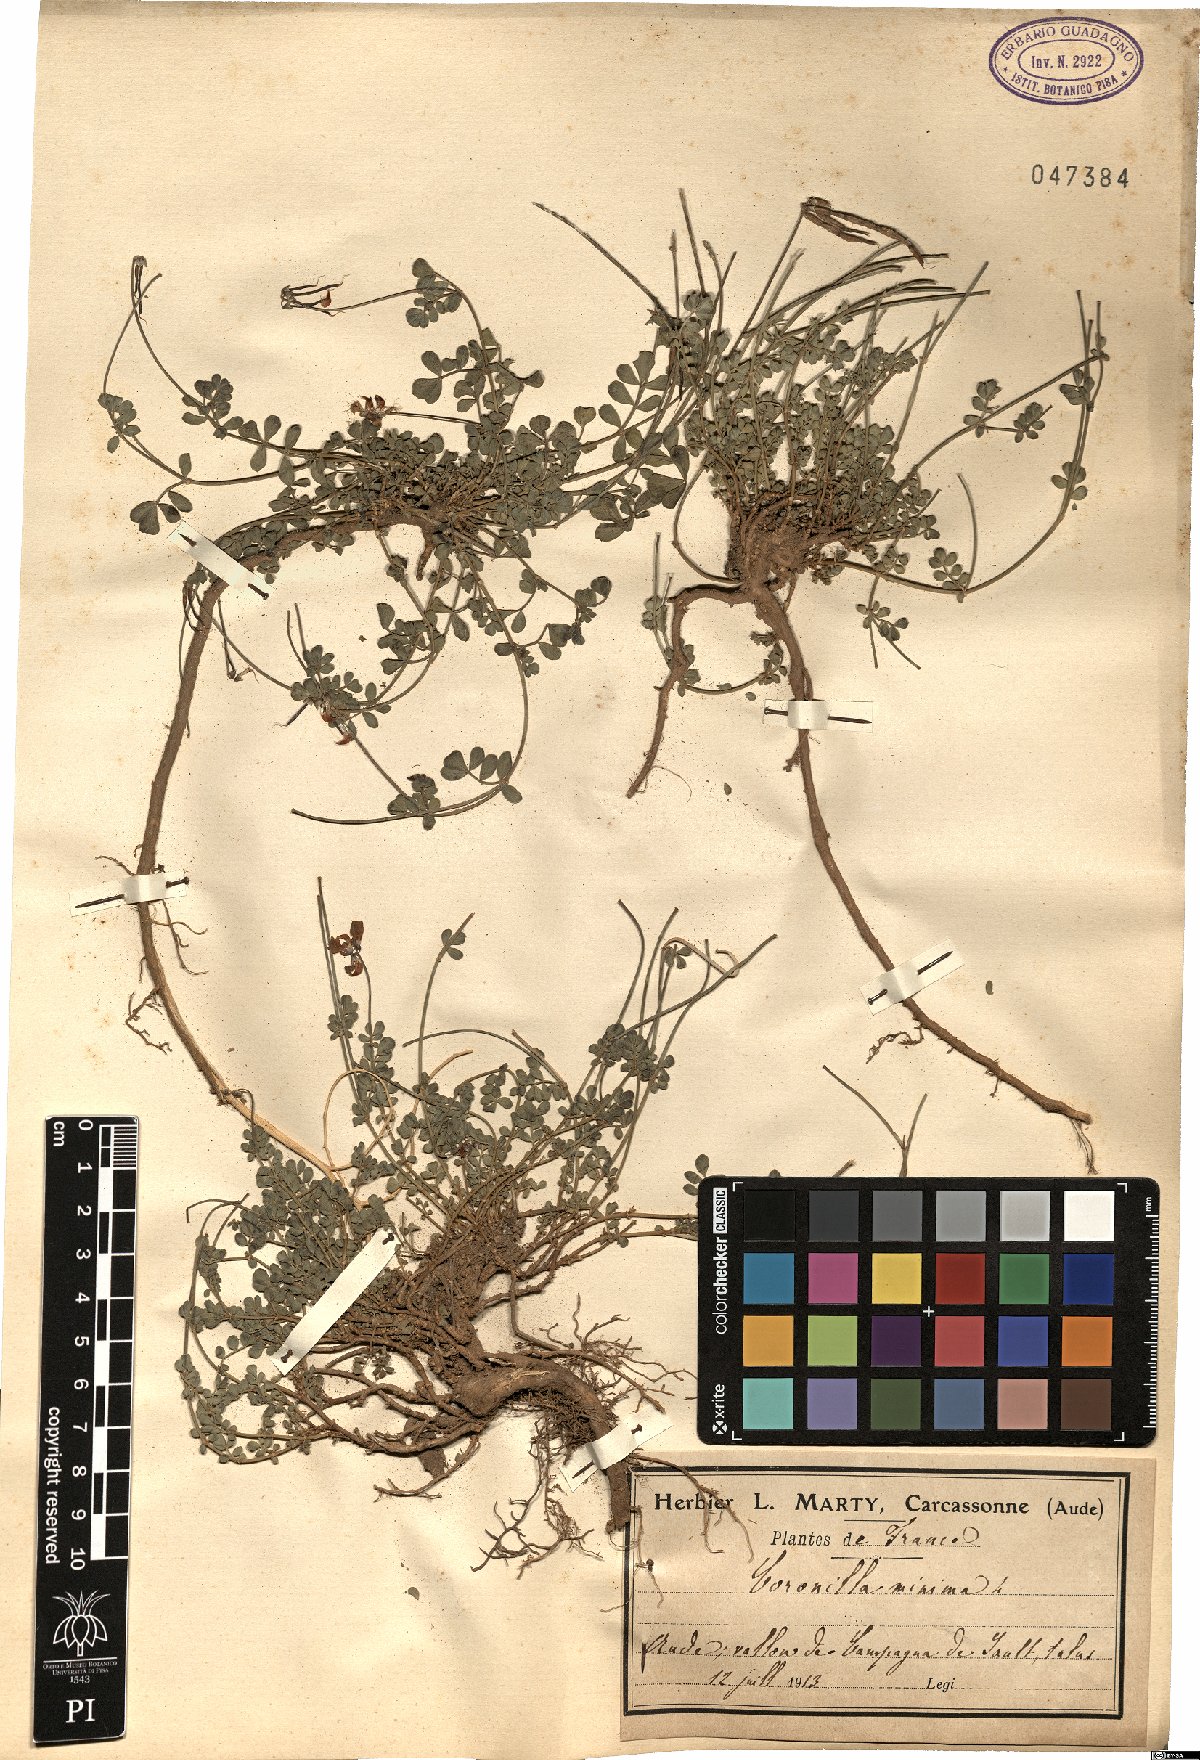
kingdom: Plantae
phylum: Tracheophyta
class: Magnoliopsida
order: Fabales
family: Fabaceae
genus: Coronilla
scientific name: Coronilla minima
